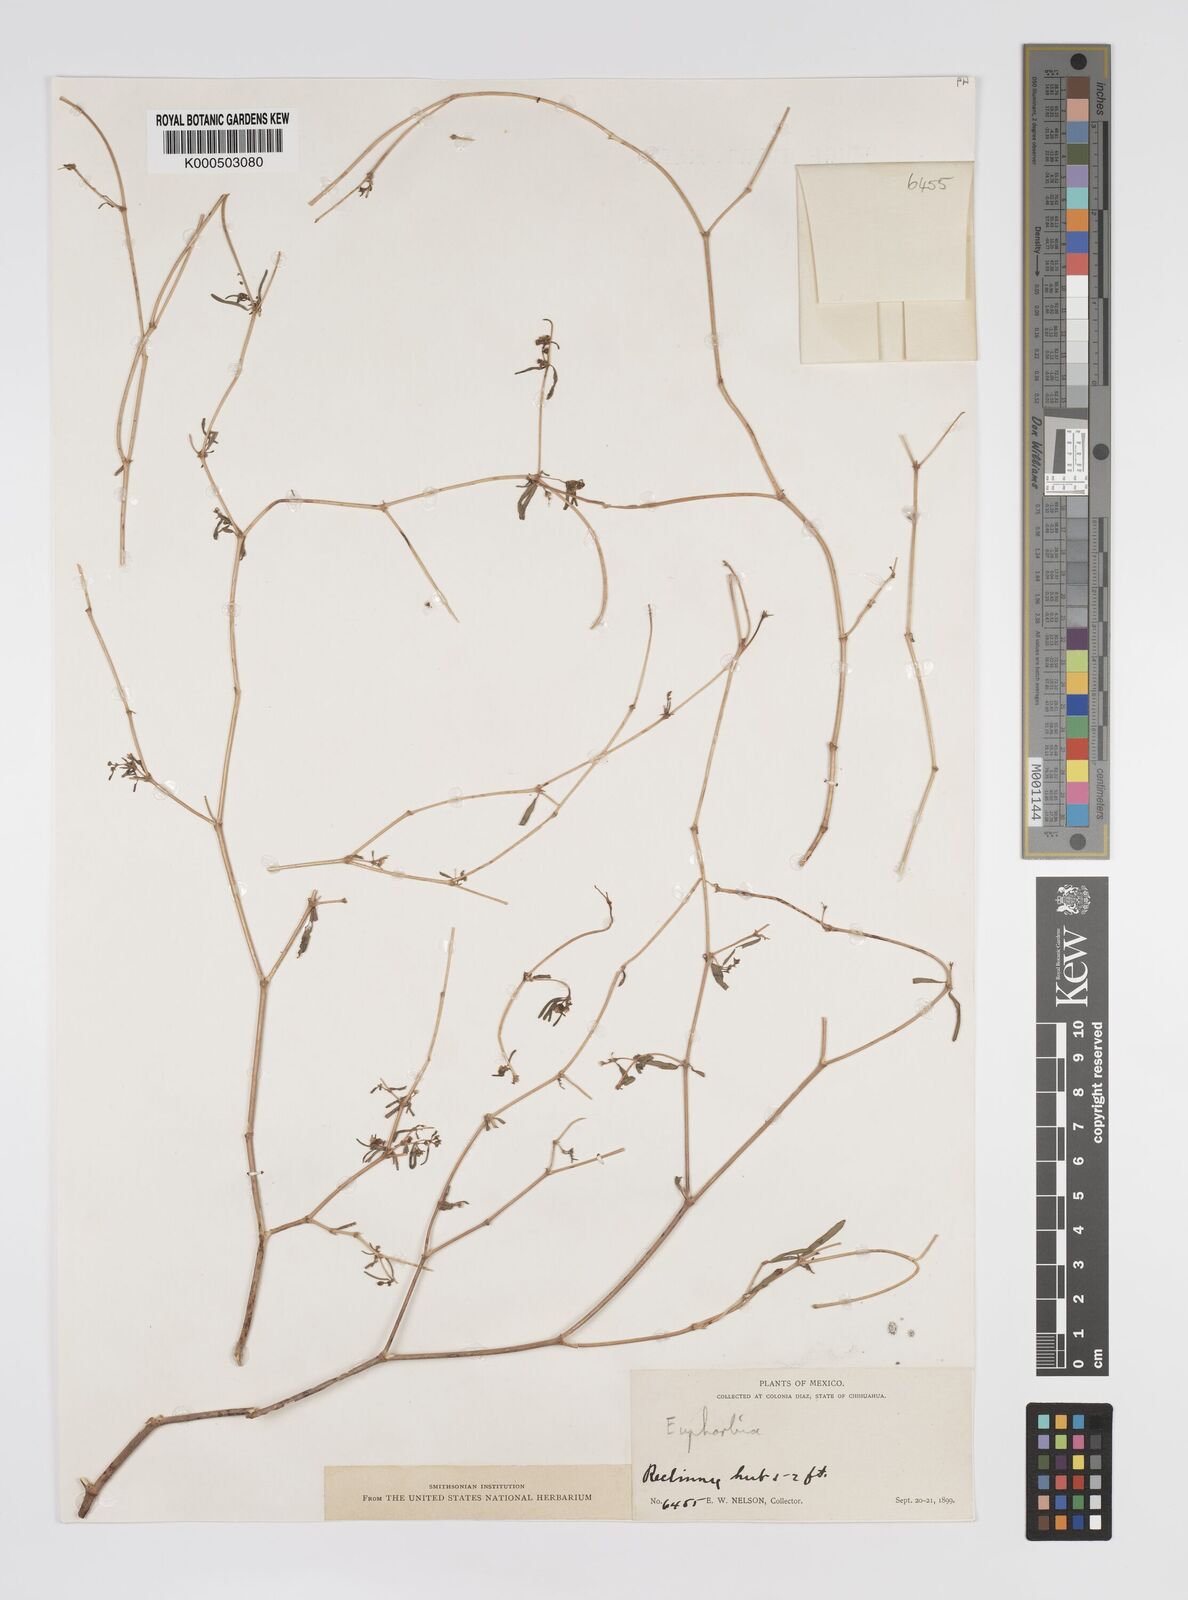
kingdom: Plantae
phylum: Tracheophyta
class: Magnoliopsida
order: Malpighiales
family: Euphorbiaceae
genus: Euphorbia
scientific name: Euphorbia
